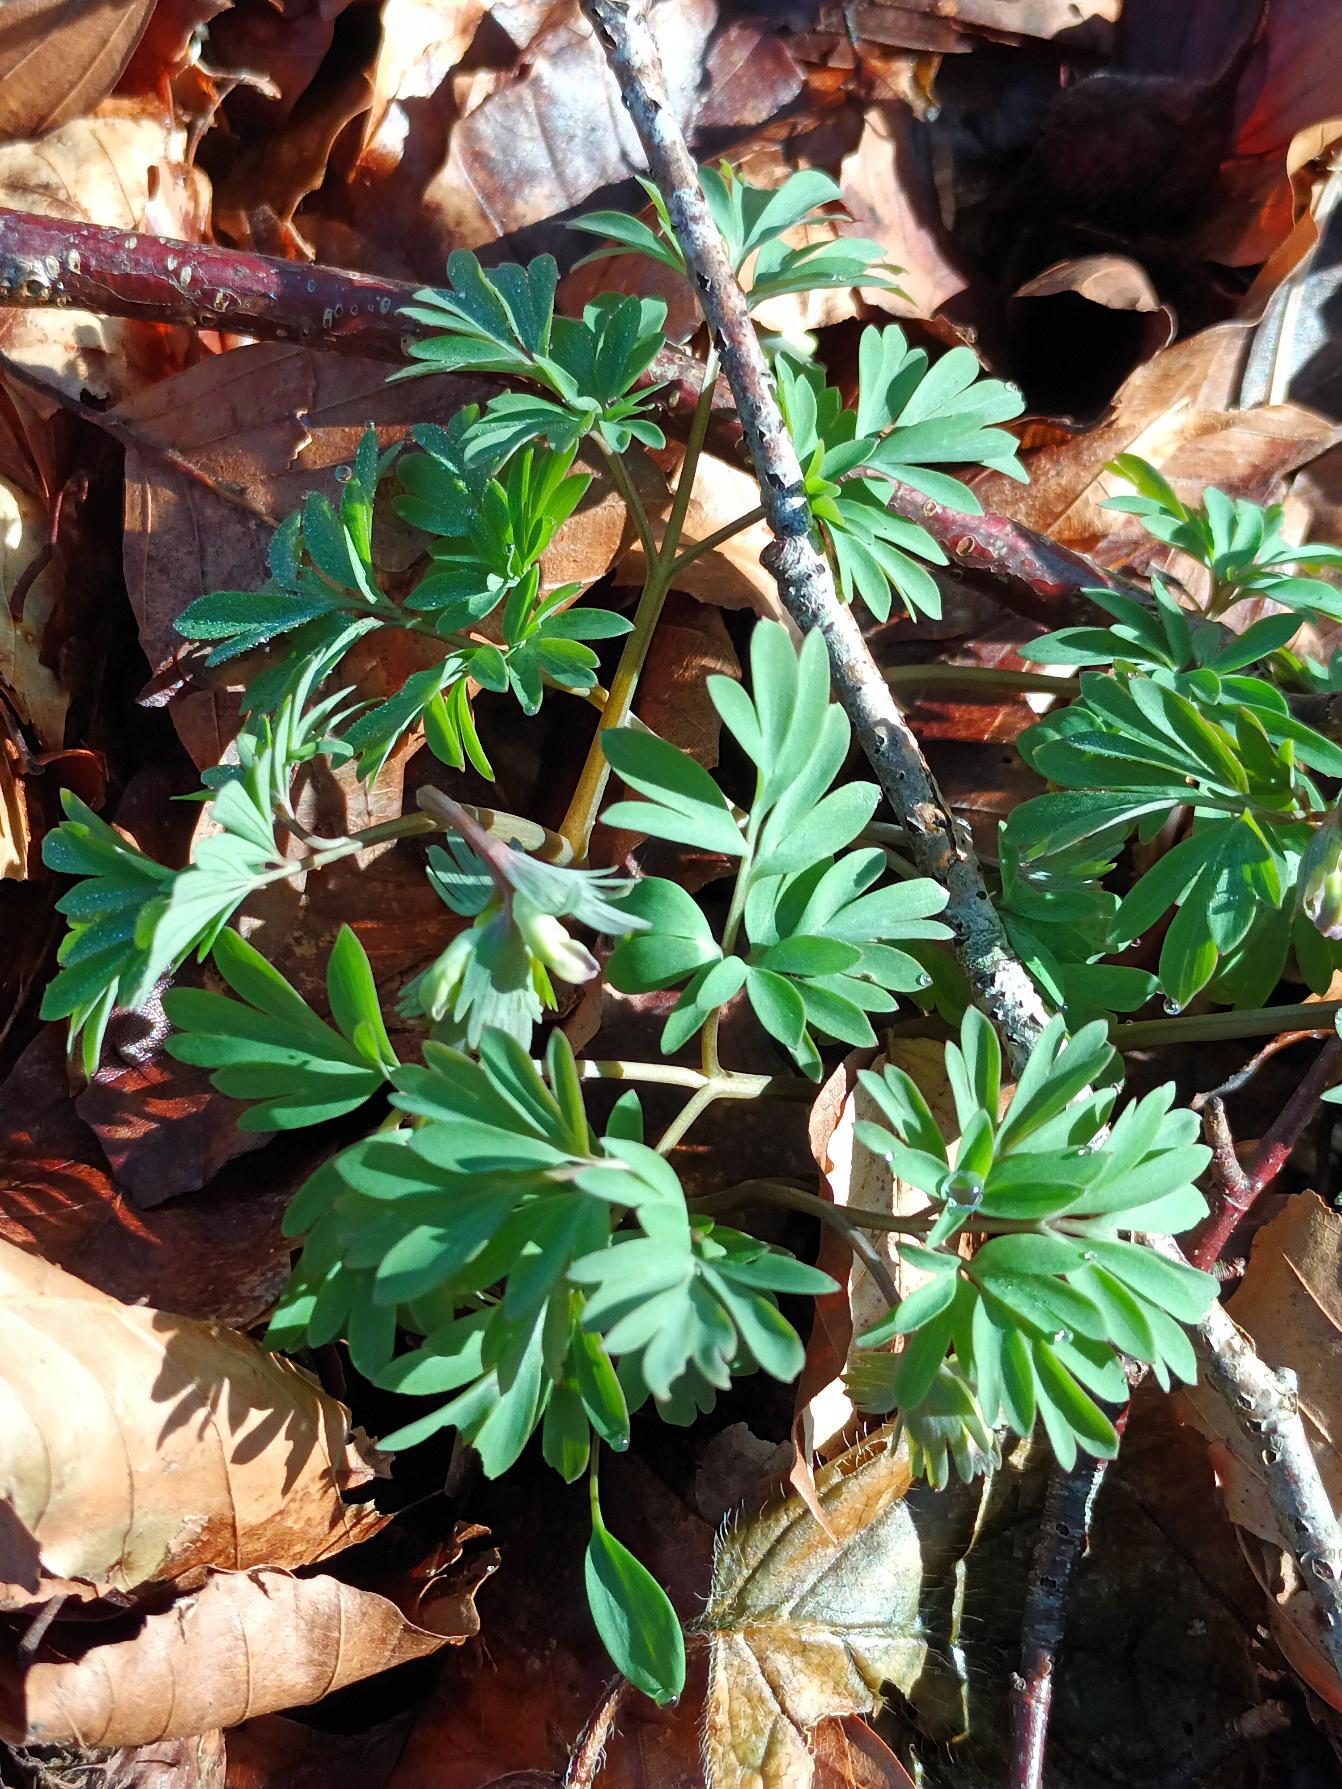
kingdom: Plantae
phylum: Tracheophyta
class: Magnoliopsida
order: Ranunculales
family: Papaveraceae
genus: Corydalis
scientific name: Corydalis solida
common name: Langstilket lærkespore
